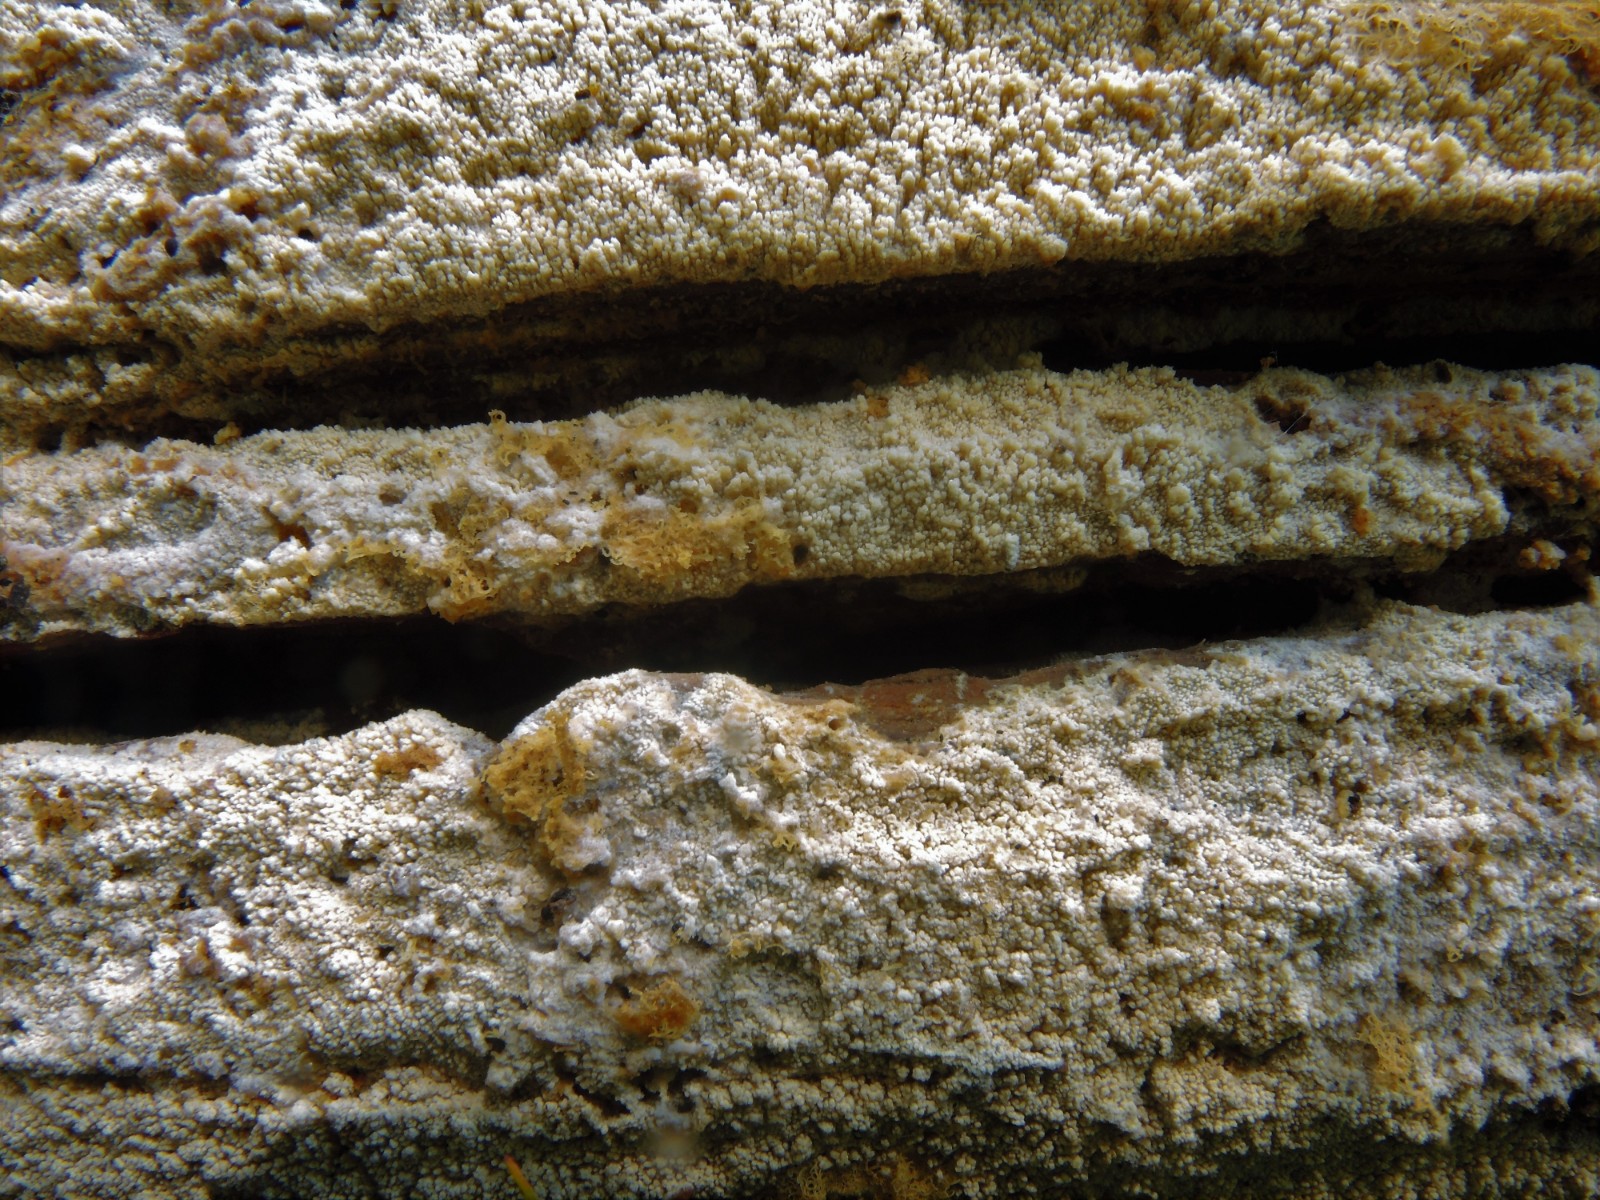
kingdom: Fungi
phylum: Basidiomycota
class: Agaricomycetes
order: Hymenochaetales
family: Schizoporaceae
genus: Alutaceodontia
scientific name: Alutaceodontia alutacea
